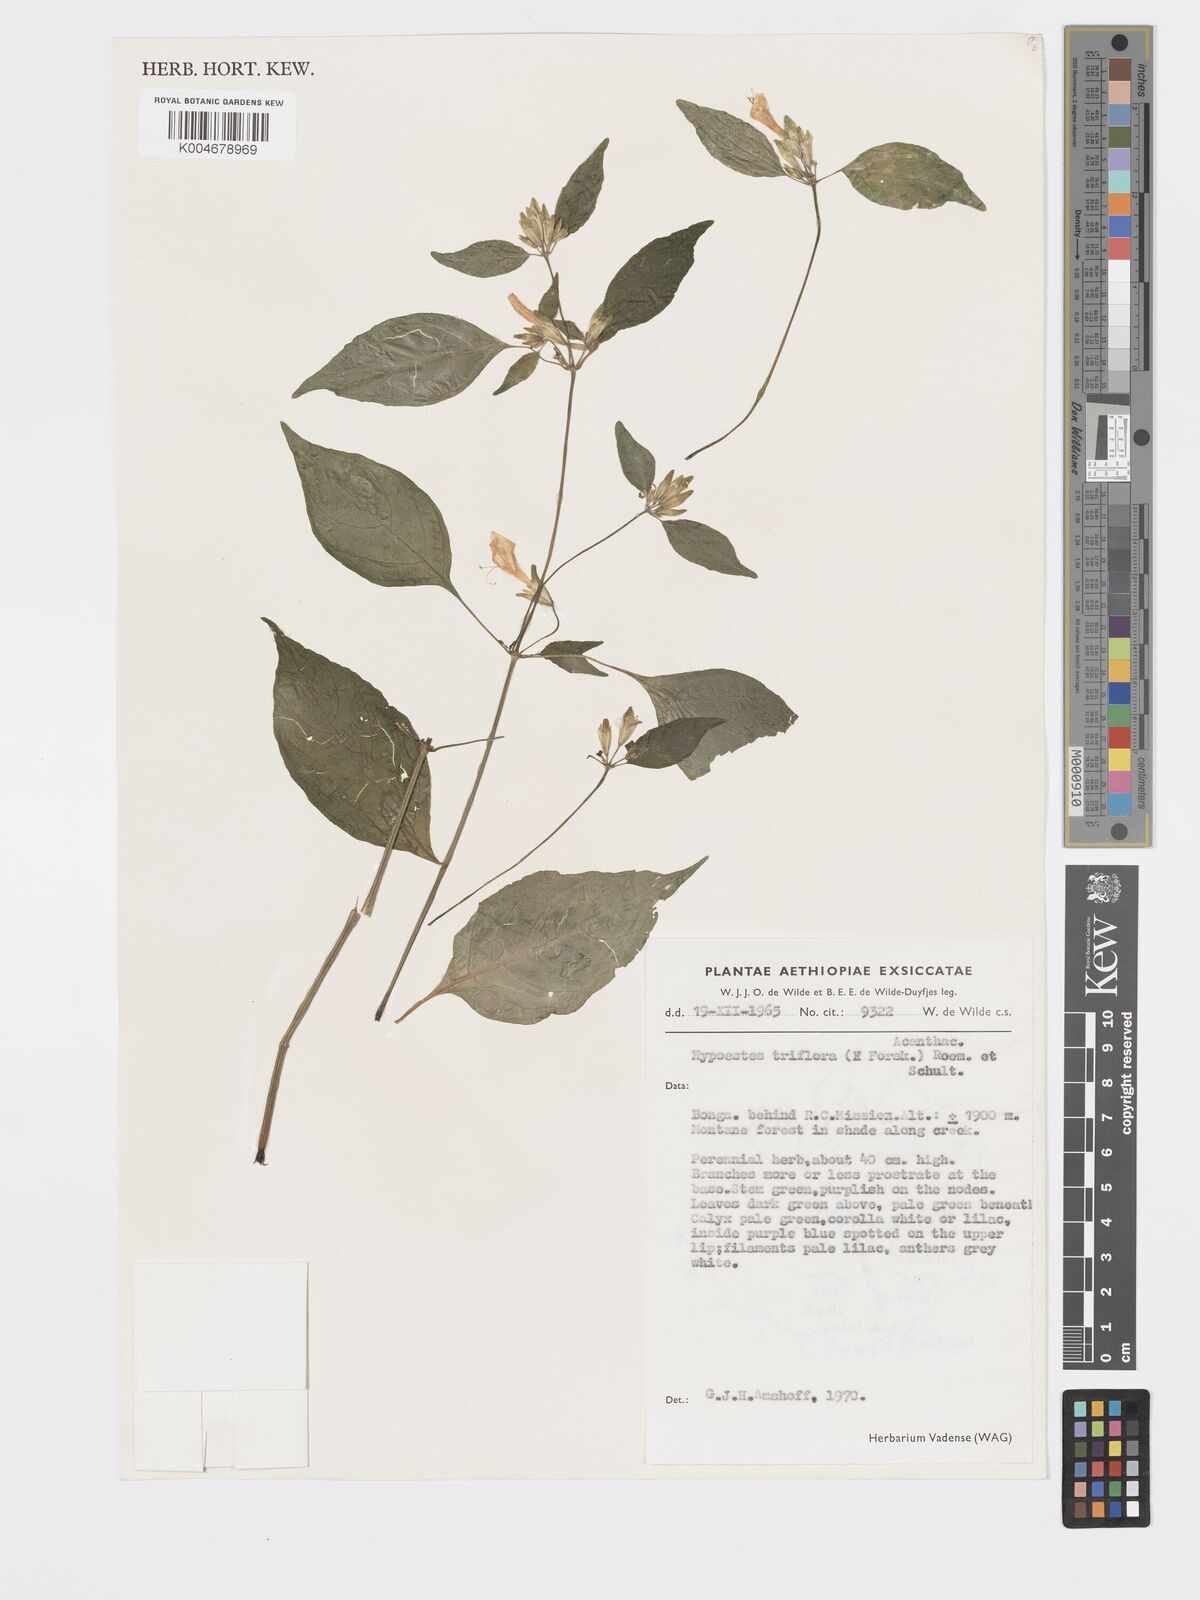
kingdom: Plantae
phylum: Tracheophyta
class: Magnoliopsida
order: Lamiales
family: Acanthaceae
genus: Hypoestes
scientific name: Hypoestes triflora
